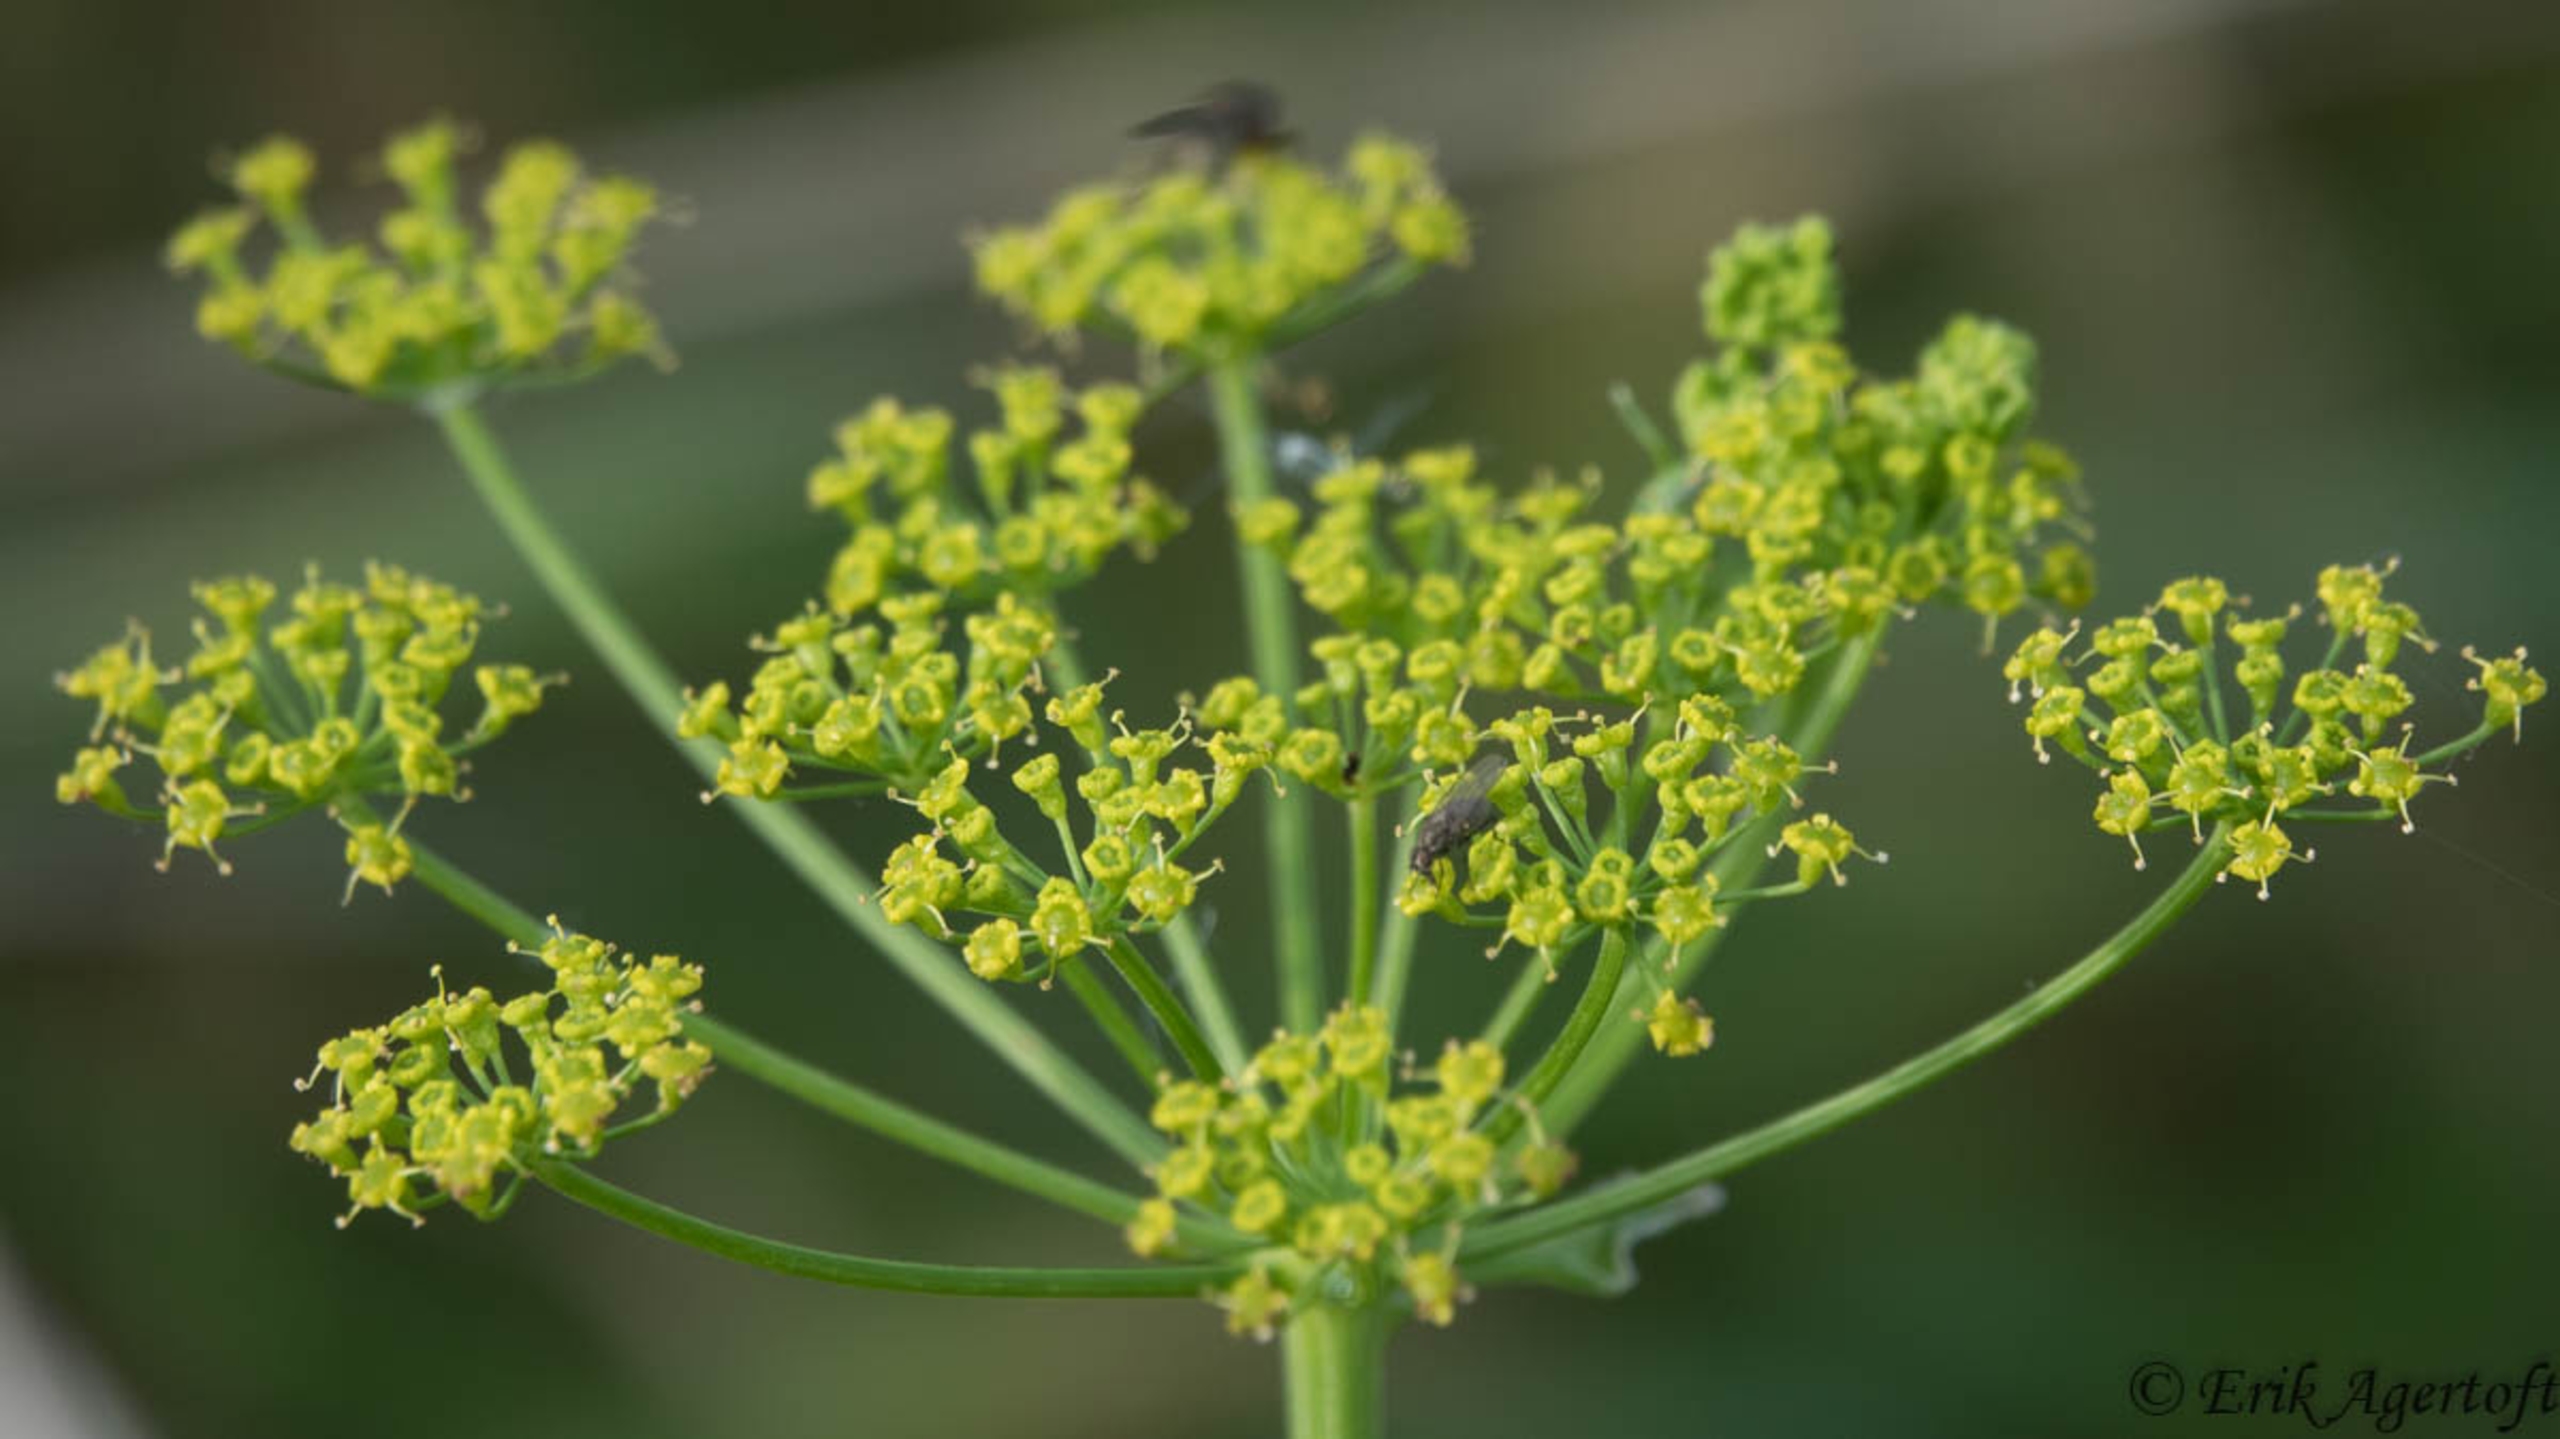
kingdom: Plantae
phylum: Tracheophyta
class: Magnoliopsida
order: Apiales
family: Apiaceae
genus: Pastinaca
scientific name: Pastinaca sativa
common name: Pastinak
